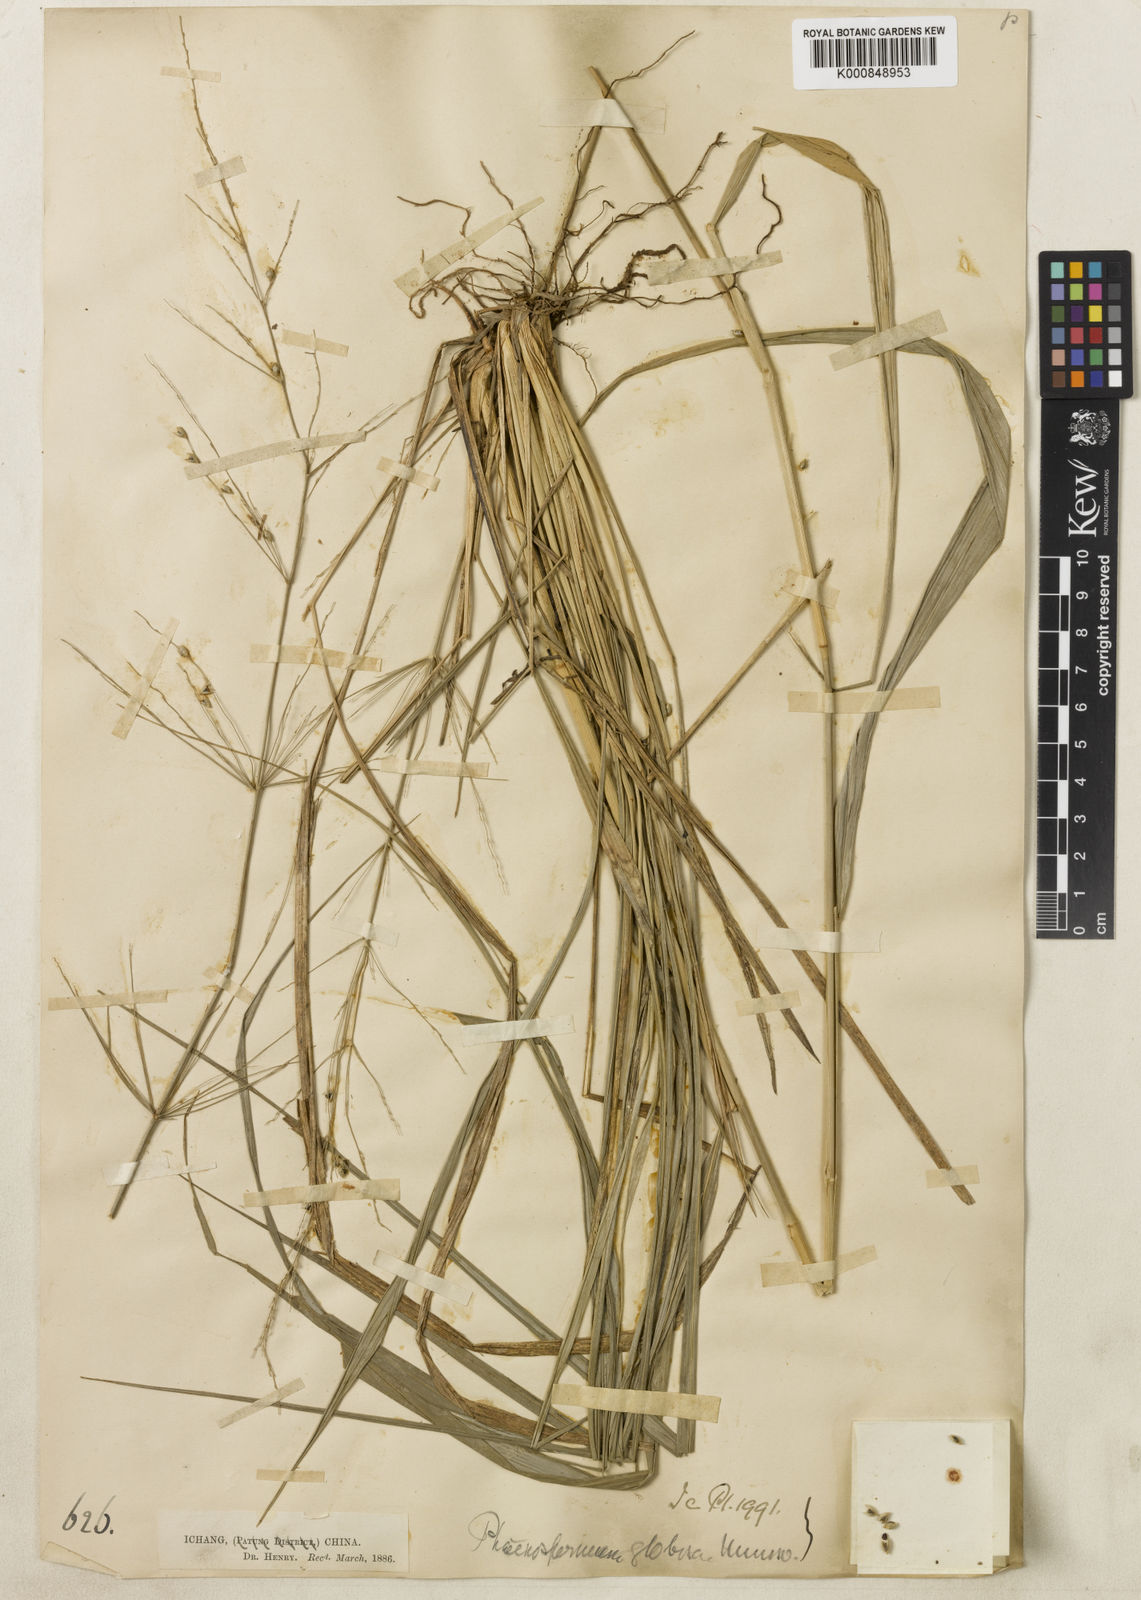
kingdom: Plantae
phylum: Tracheophyta
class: Liliopsida
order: Poales
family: Poaceae
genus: Phaenosperma
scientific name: Phaenosperma
